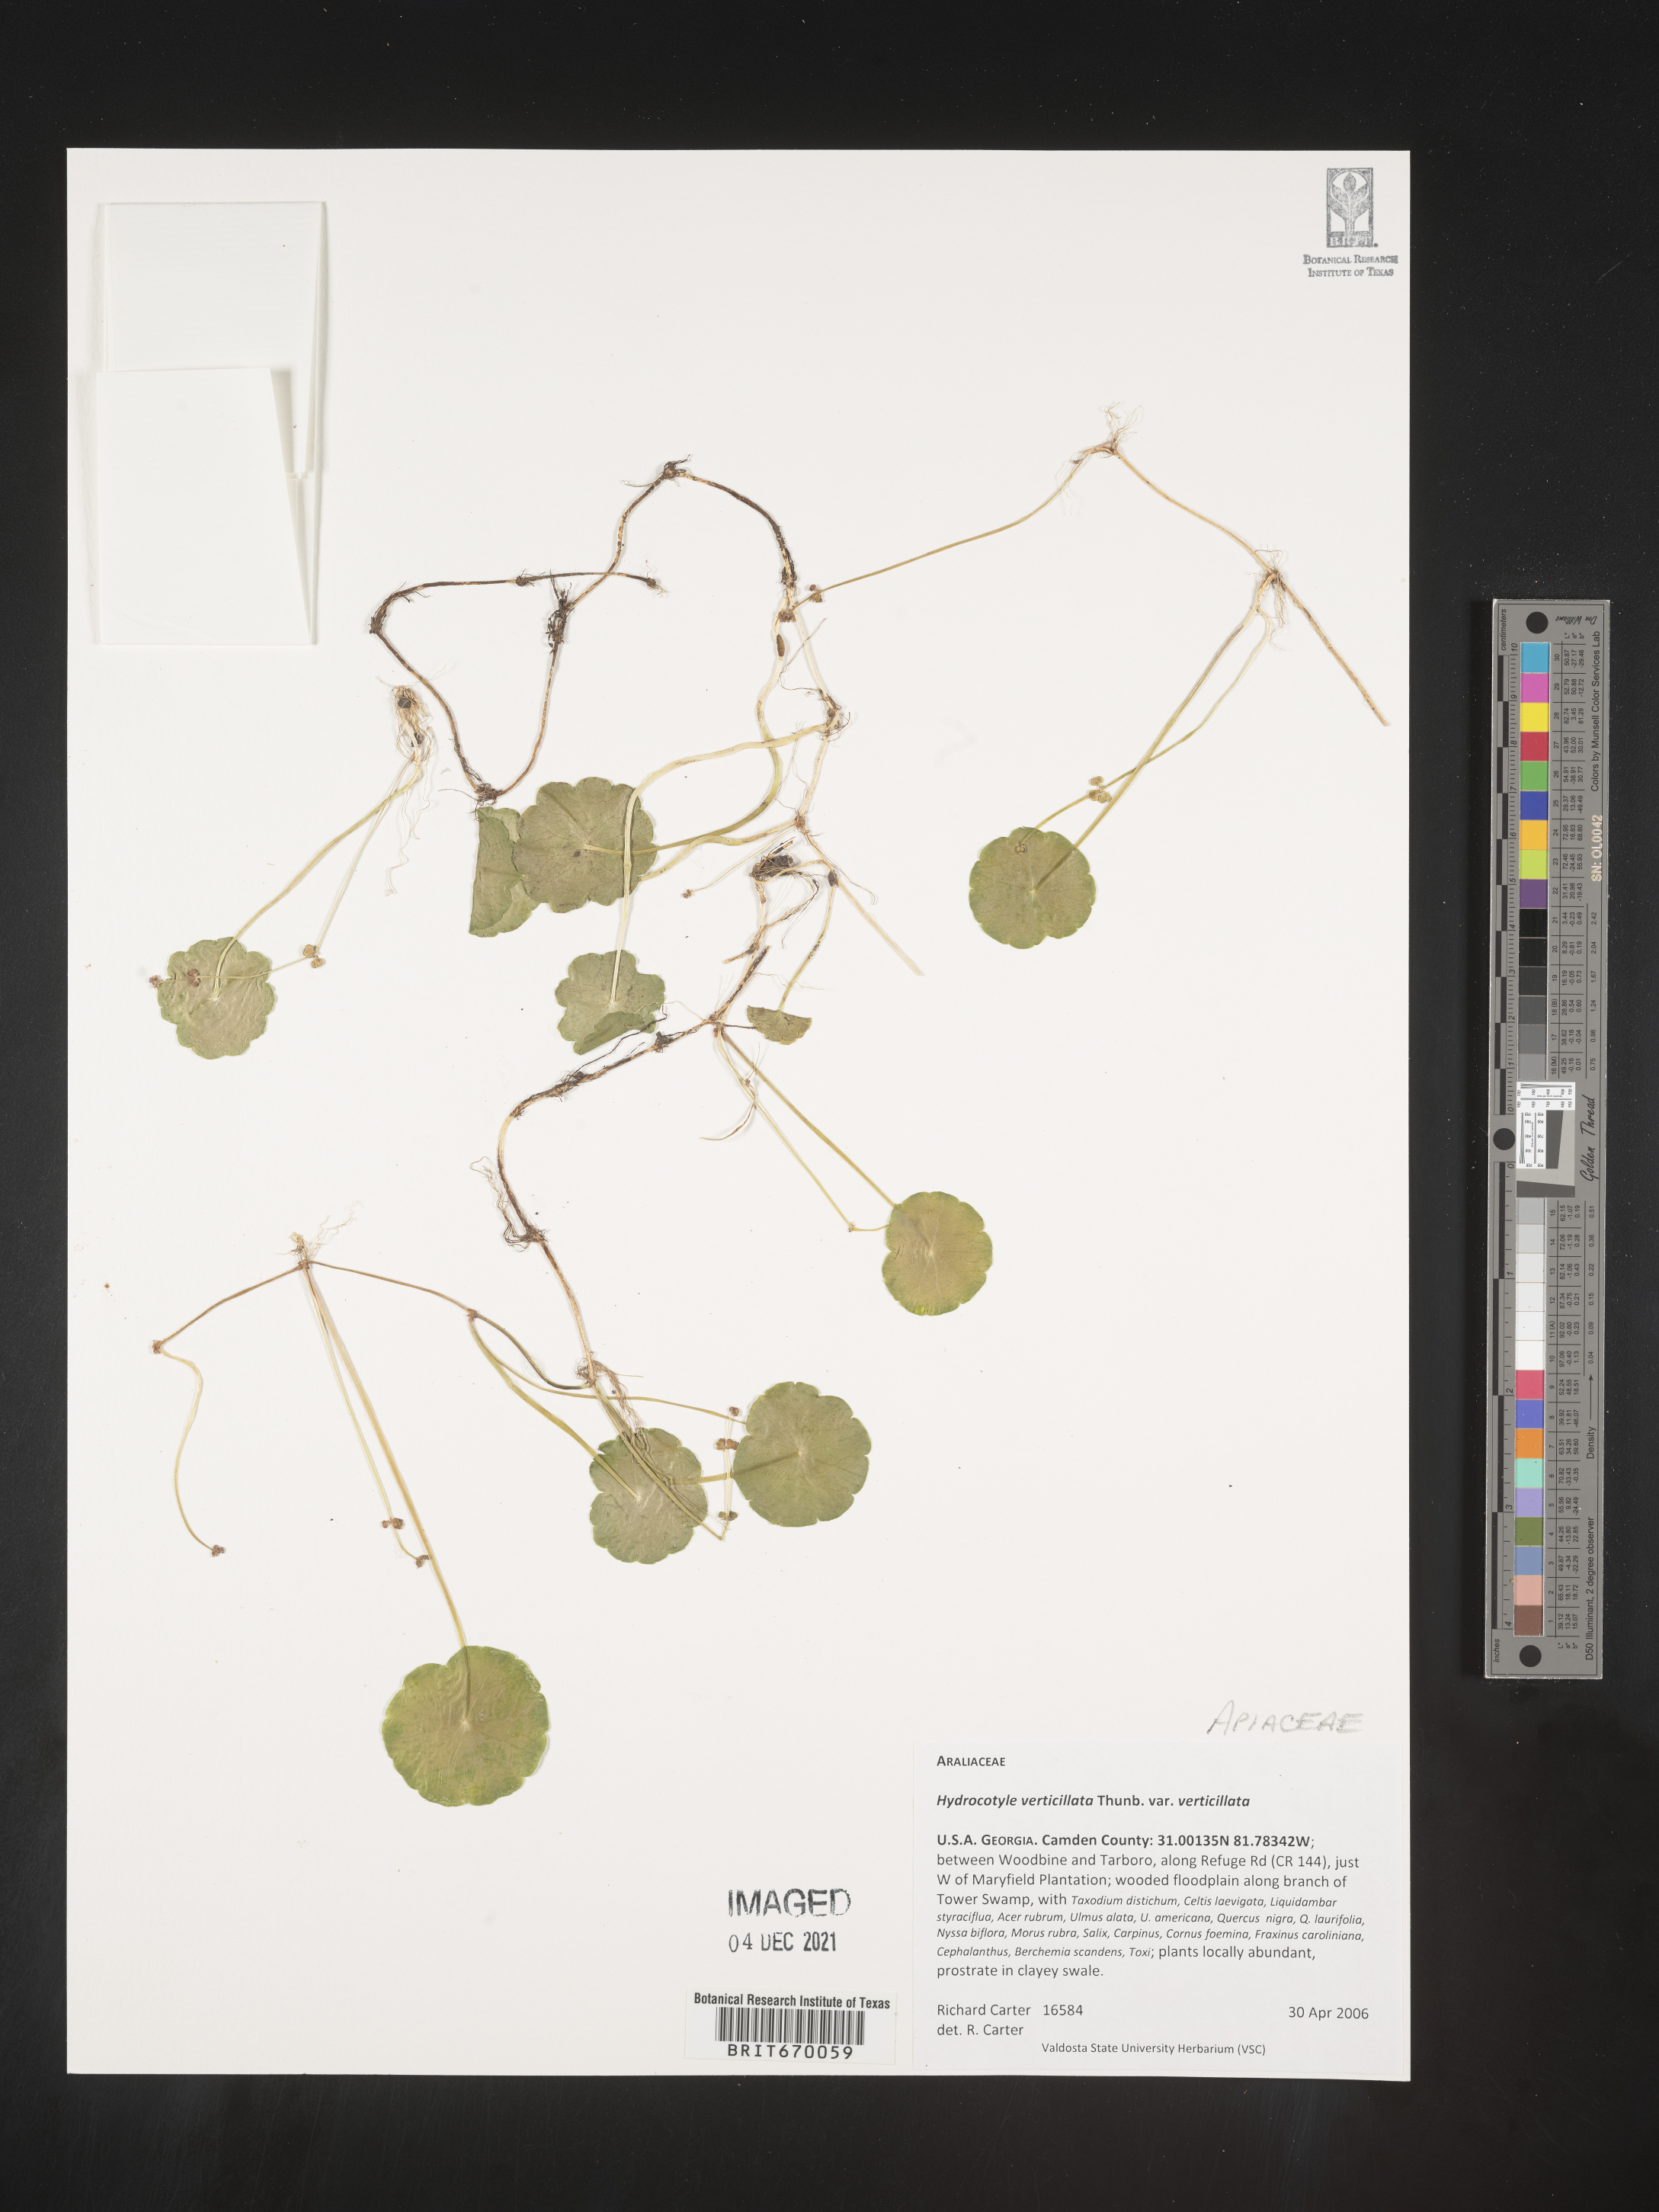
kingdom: Plantae
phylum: Tracheophyta
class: Magnoliopsida
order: Apiales
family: Araliaceae
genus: Hydrocotyle
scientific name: Hydrocotyle verticillata
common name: Whorled marshpennywort
